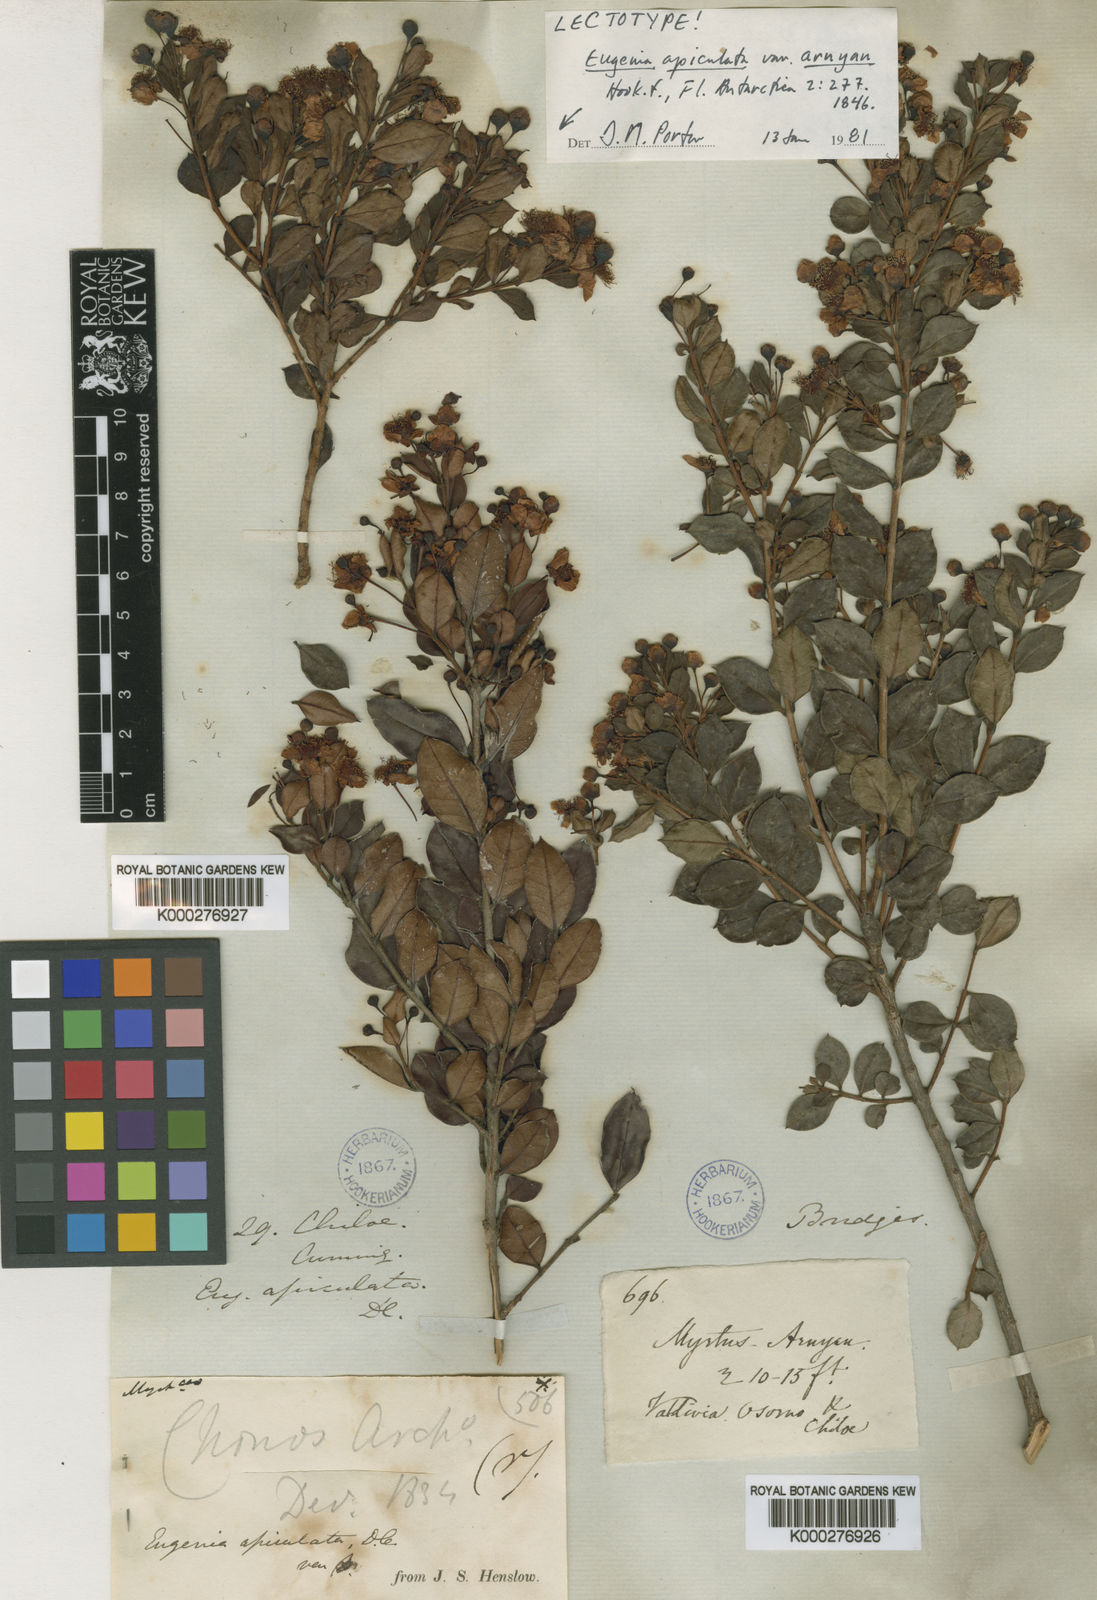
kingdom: Plantae
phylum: Tracheophyta
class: Magnoliopsida
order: Myrtales
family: Myrtaceae
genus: Luma
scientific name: Luma apiculata
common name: Chilean myrtle
